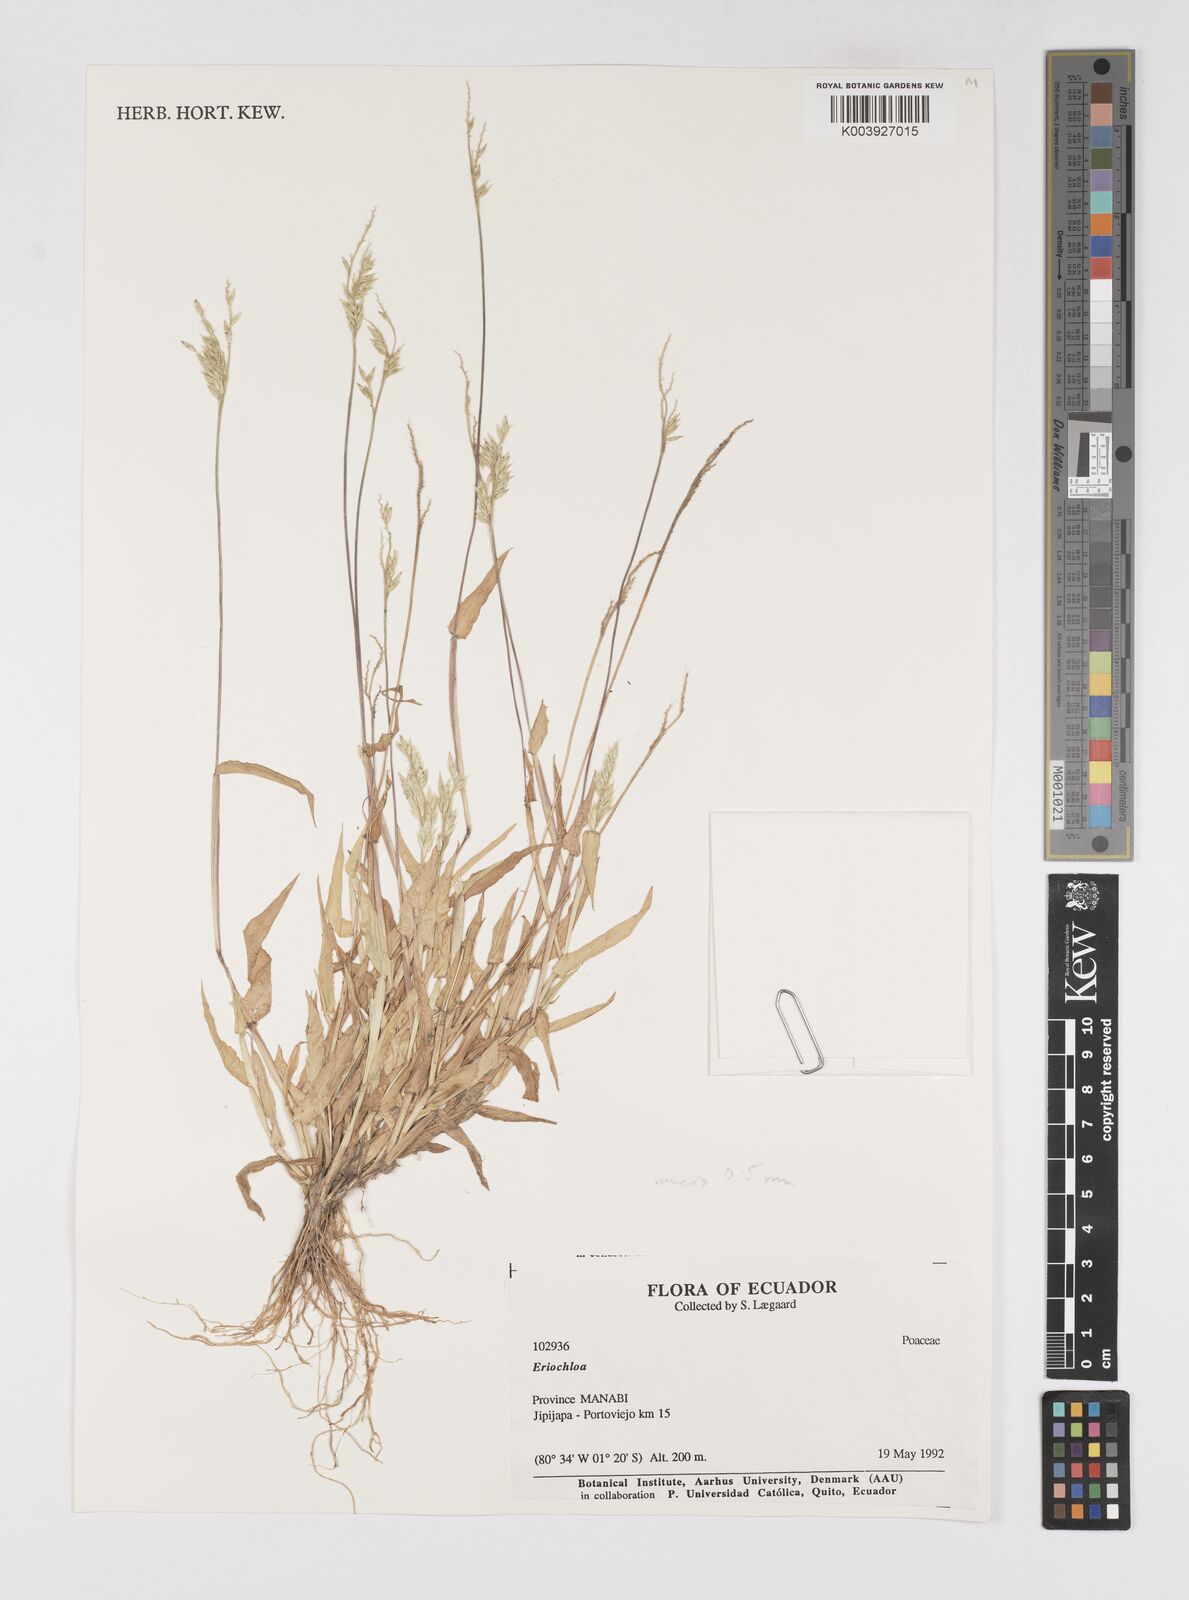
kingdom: Plantae
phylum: Tracheophyta
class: Liliopsida
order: Poales
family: Poaceae
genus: Eriochloa
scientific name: Eriochloa pacifica
